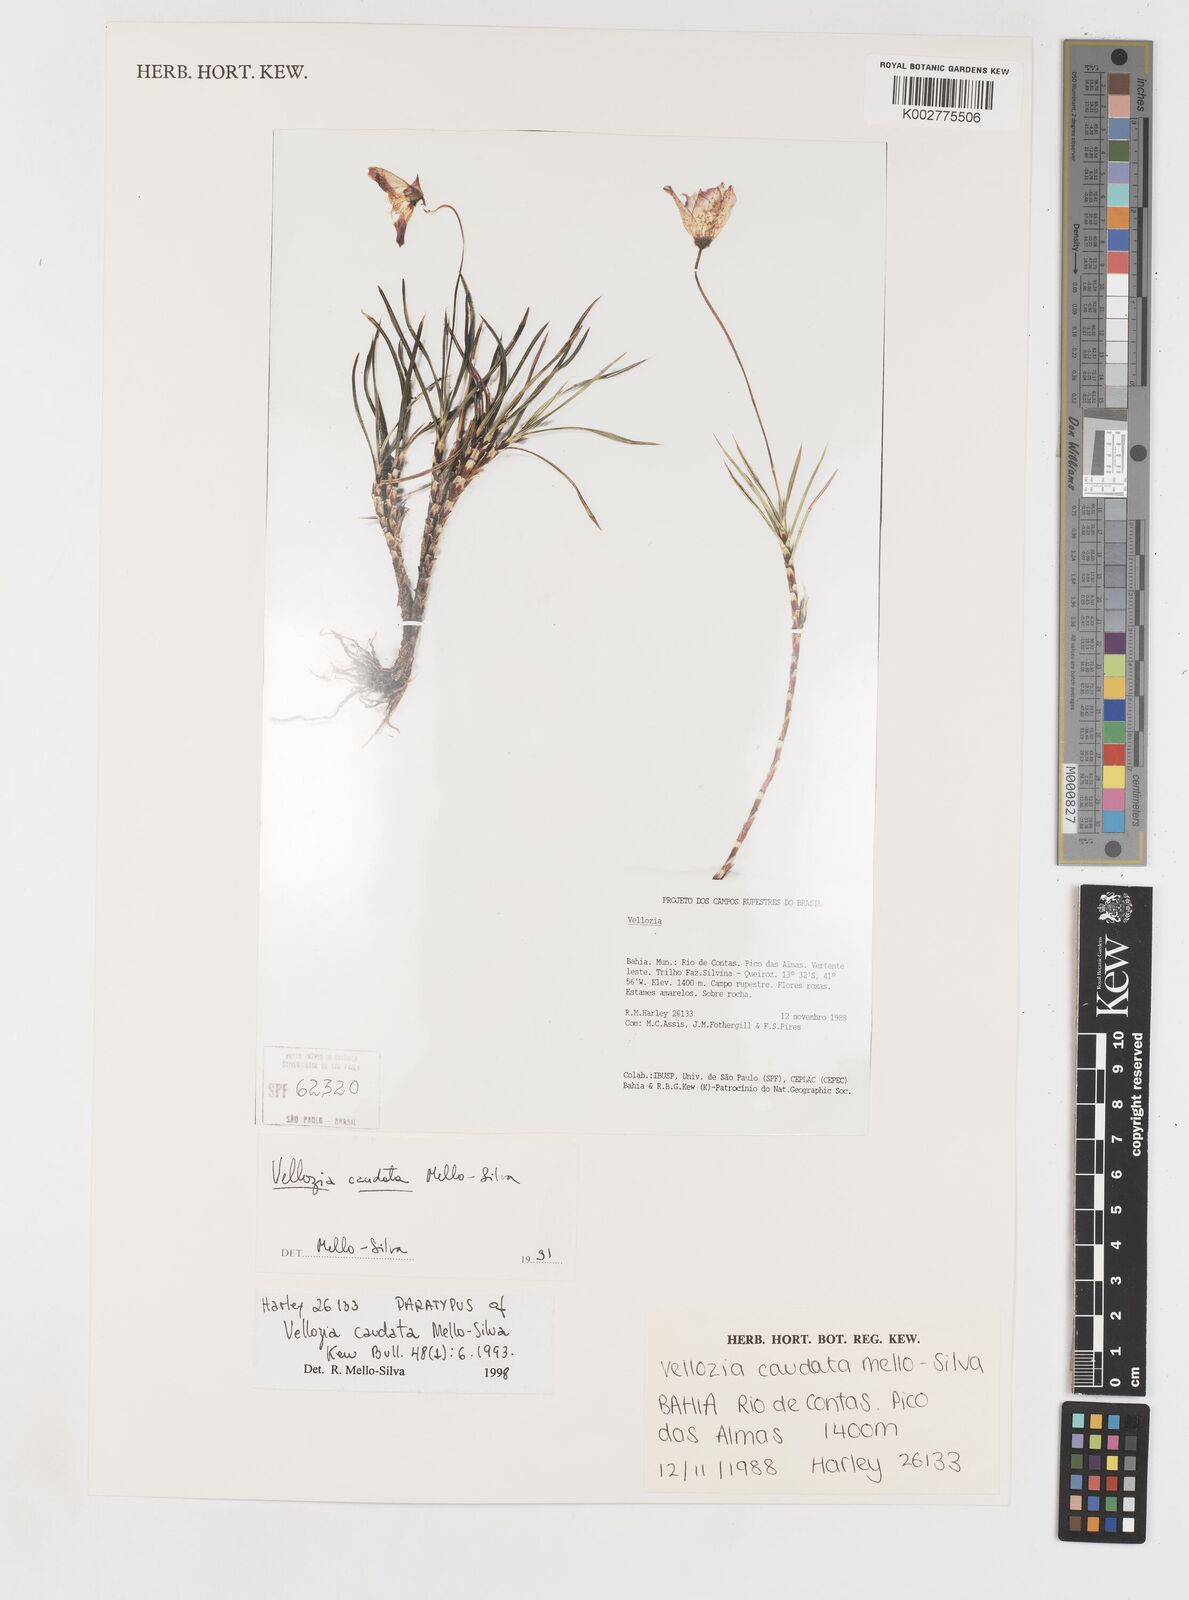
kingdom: Plantae
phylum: Tracheophyta
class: Liliopsida
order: Pandanales
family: Velloziaceae
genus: Vellozia
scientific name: Vellozia caudata
